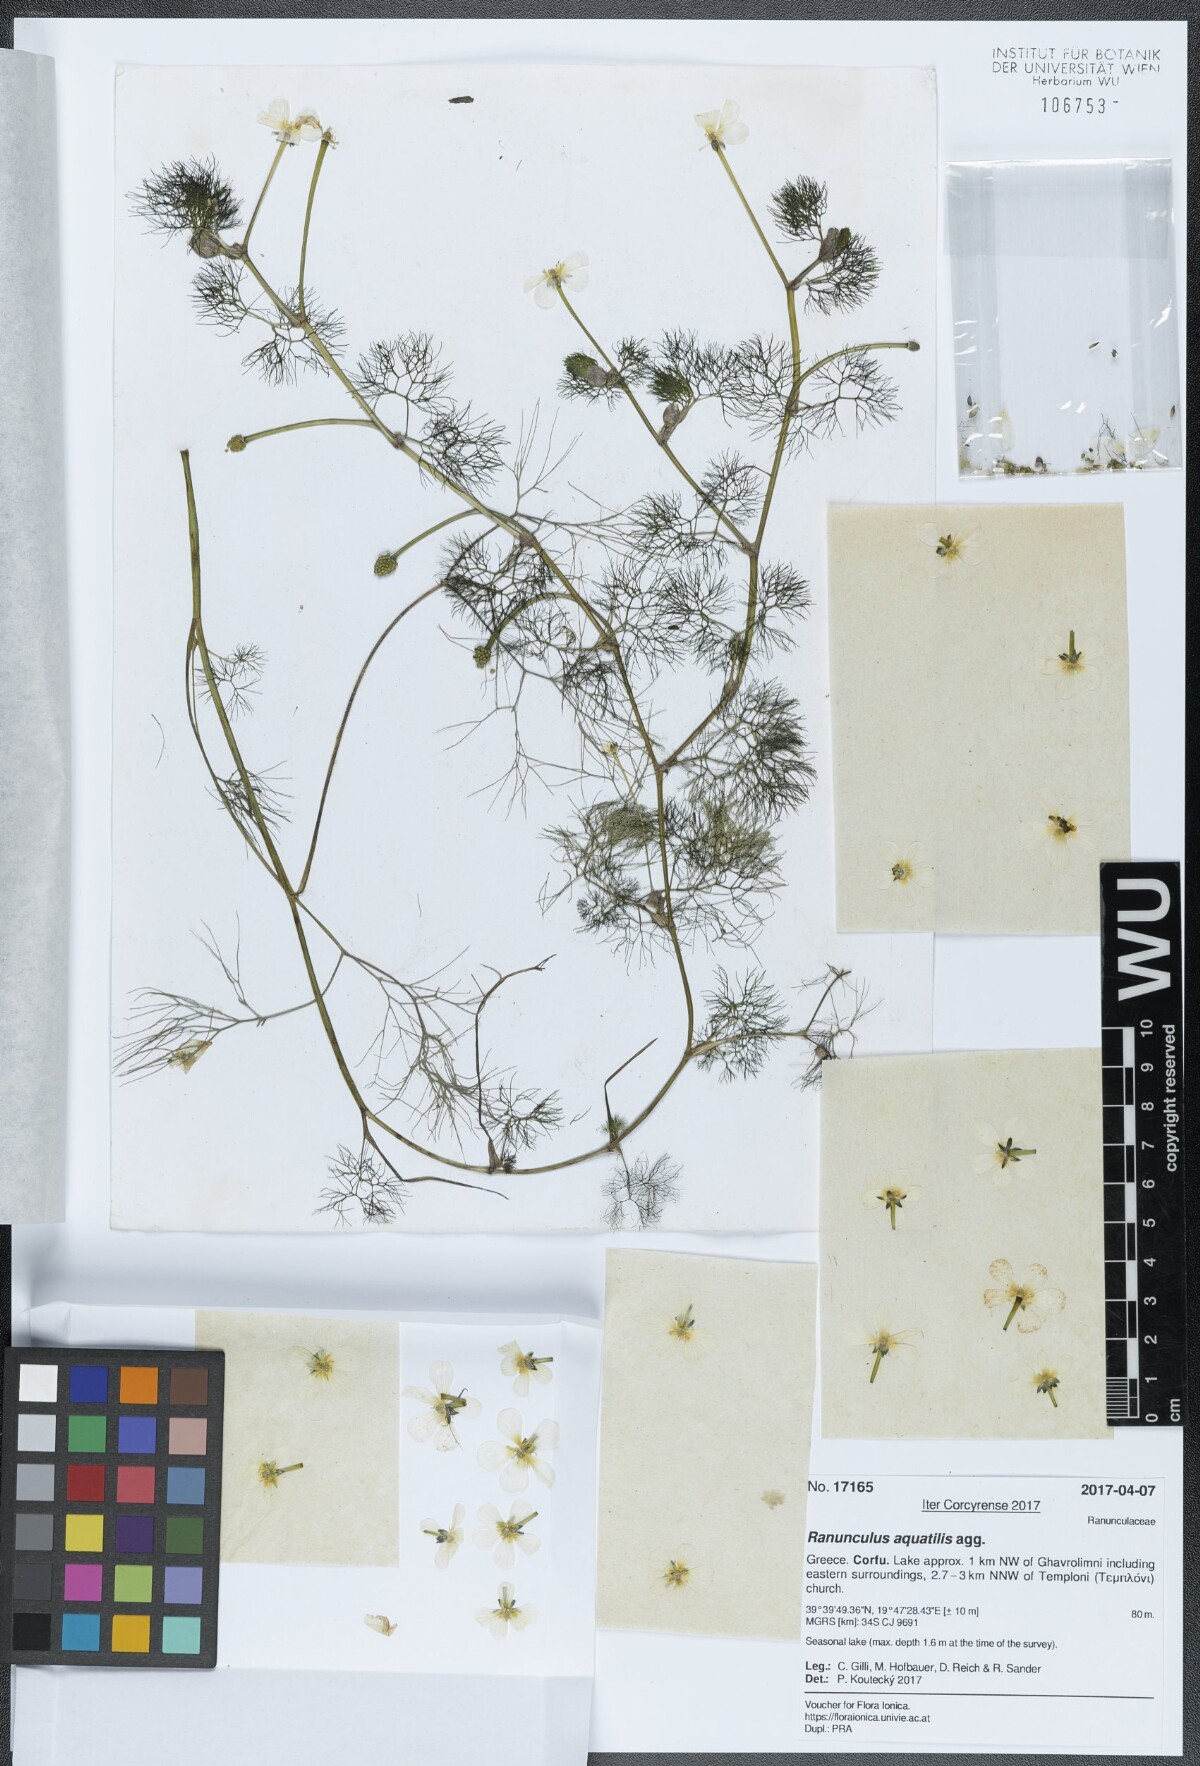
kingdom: Plantae
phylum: Tracheophyta
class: Magnoliopsida
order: Ranunculales
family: Ranunculaceae
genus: Ranunculus
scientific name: Ranunculus aquatilis
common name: Common water-crowfoot
